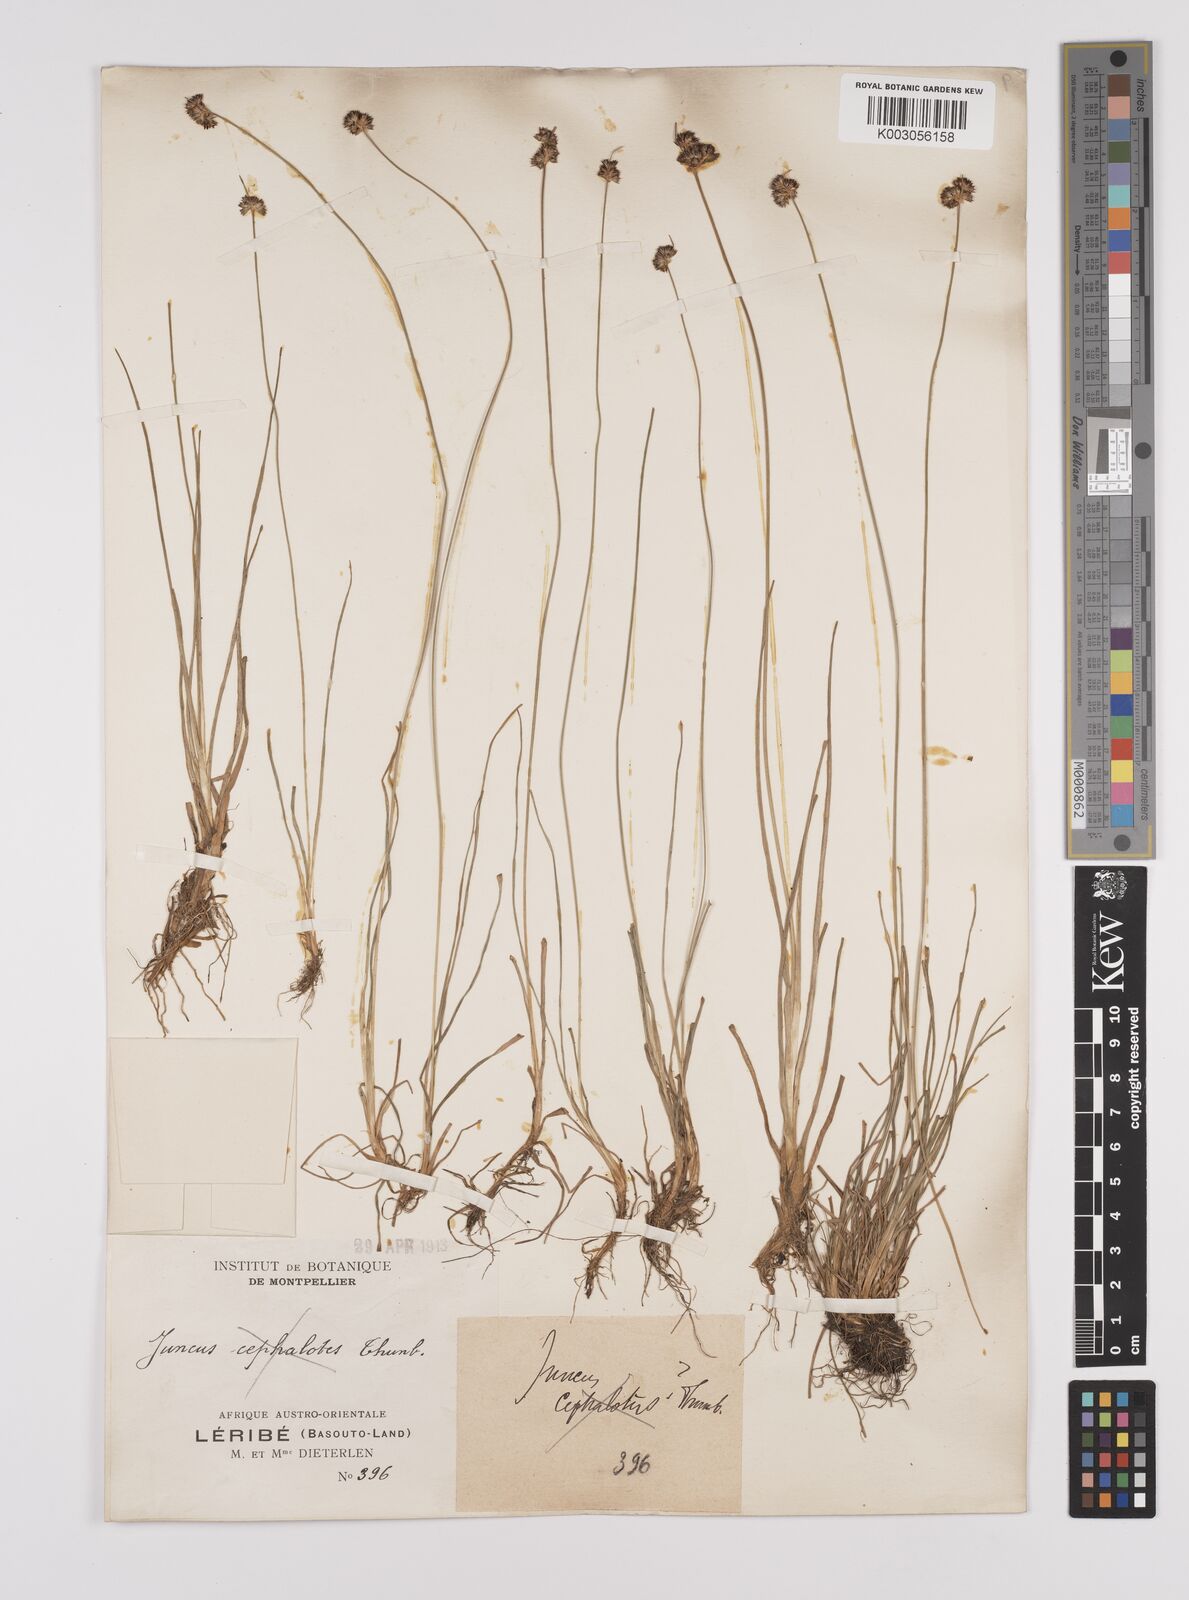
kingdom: Plantae
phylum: Tracheophyta
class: Liliopsida
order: Poales
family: Juncaceae
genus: Juncus
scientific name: Juncus
